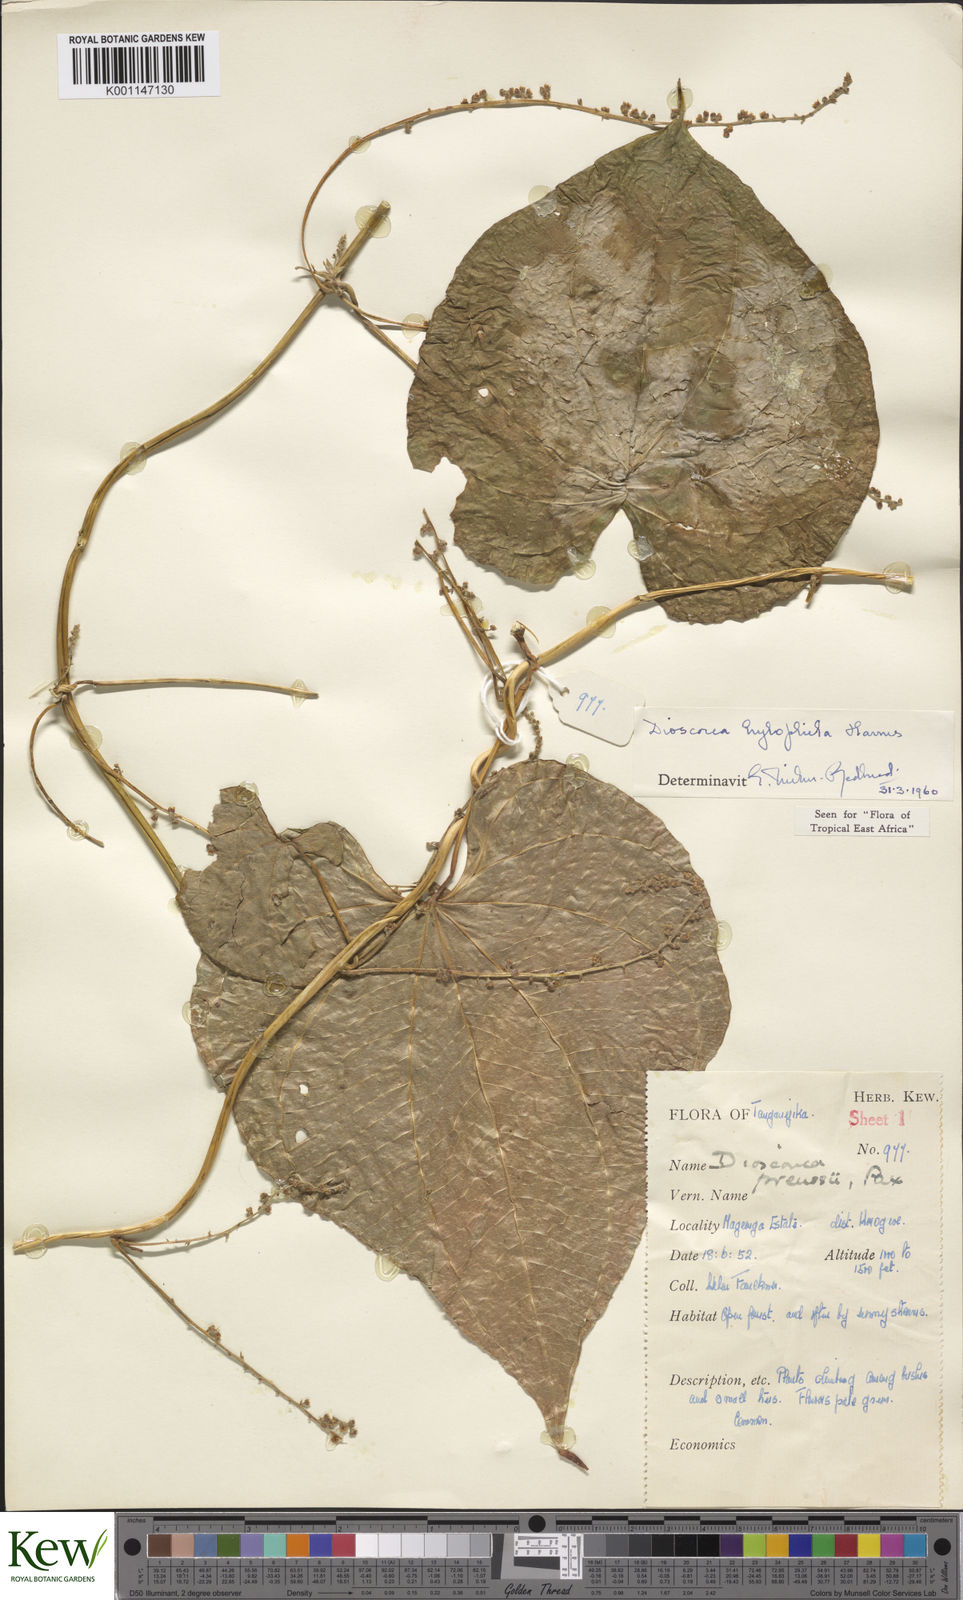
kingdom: Plantae
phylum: Tracheophyta
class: Liliopsida
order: Dioscoreales
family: Dioscoreaceae
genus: Dioscorea
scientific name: Dioscorea
